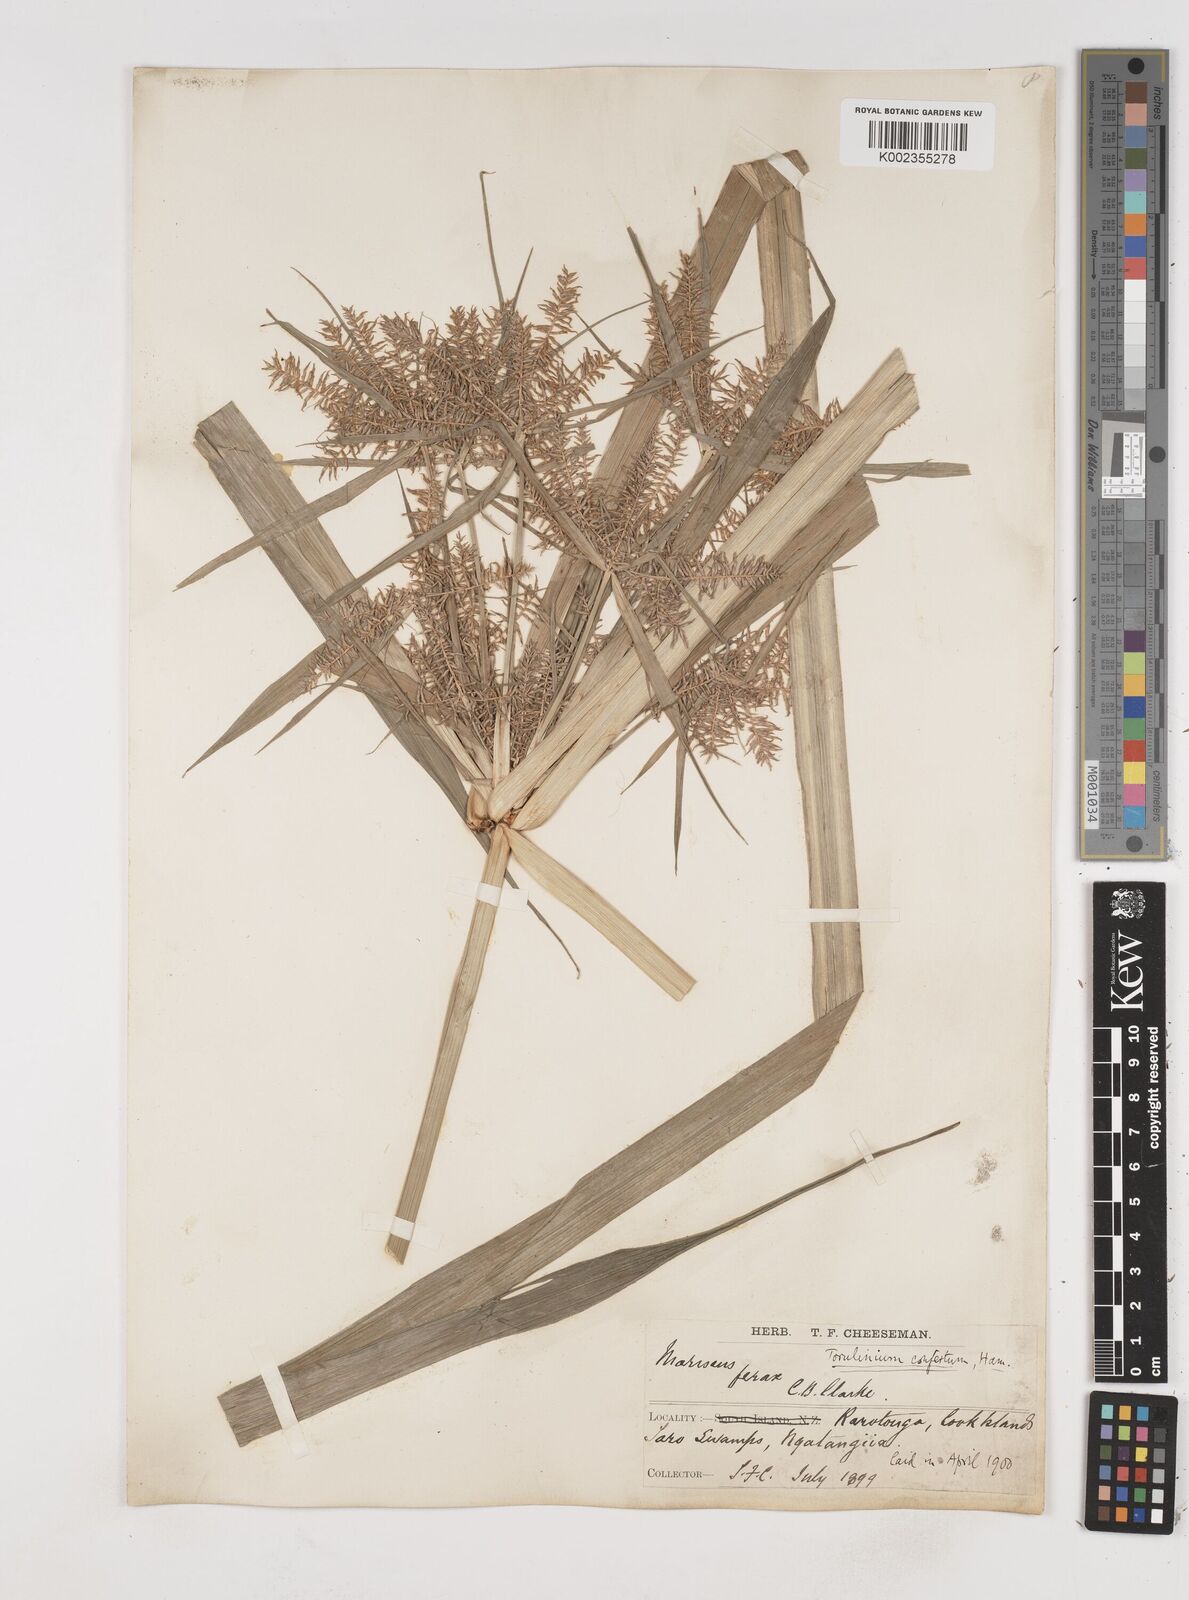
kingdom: Plantae
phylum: Tracheophyta
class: Liliopsida
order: Poales
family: Cyperaceae
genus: Cyperus
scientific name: Cyperus odoratus
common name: Fragrant flatsedge
